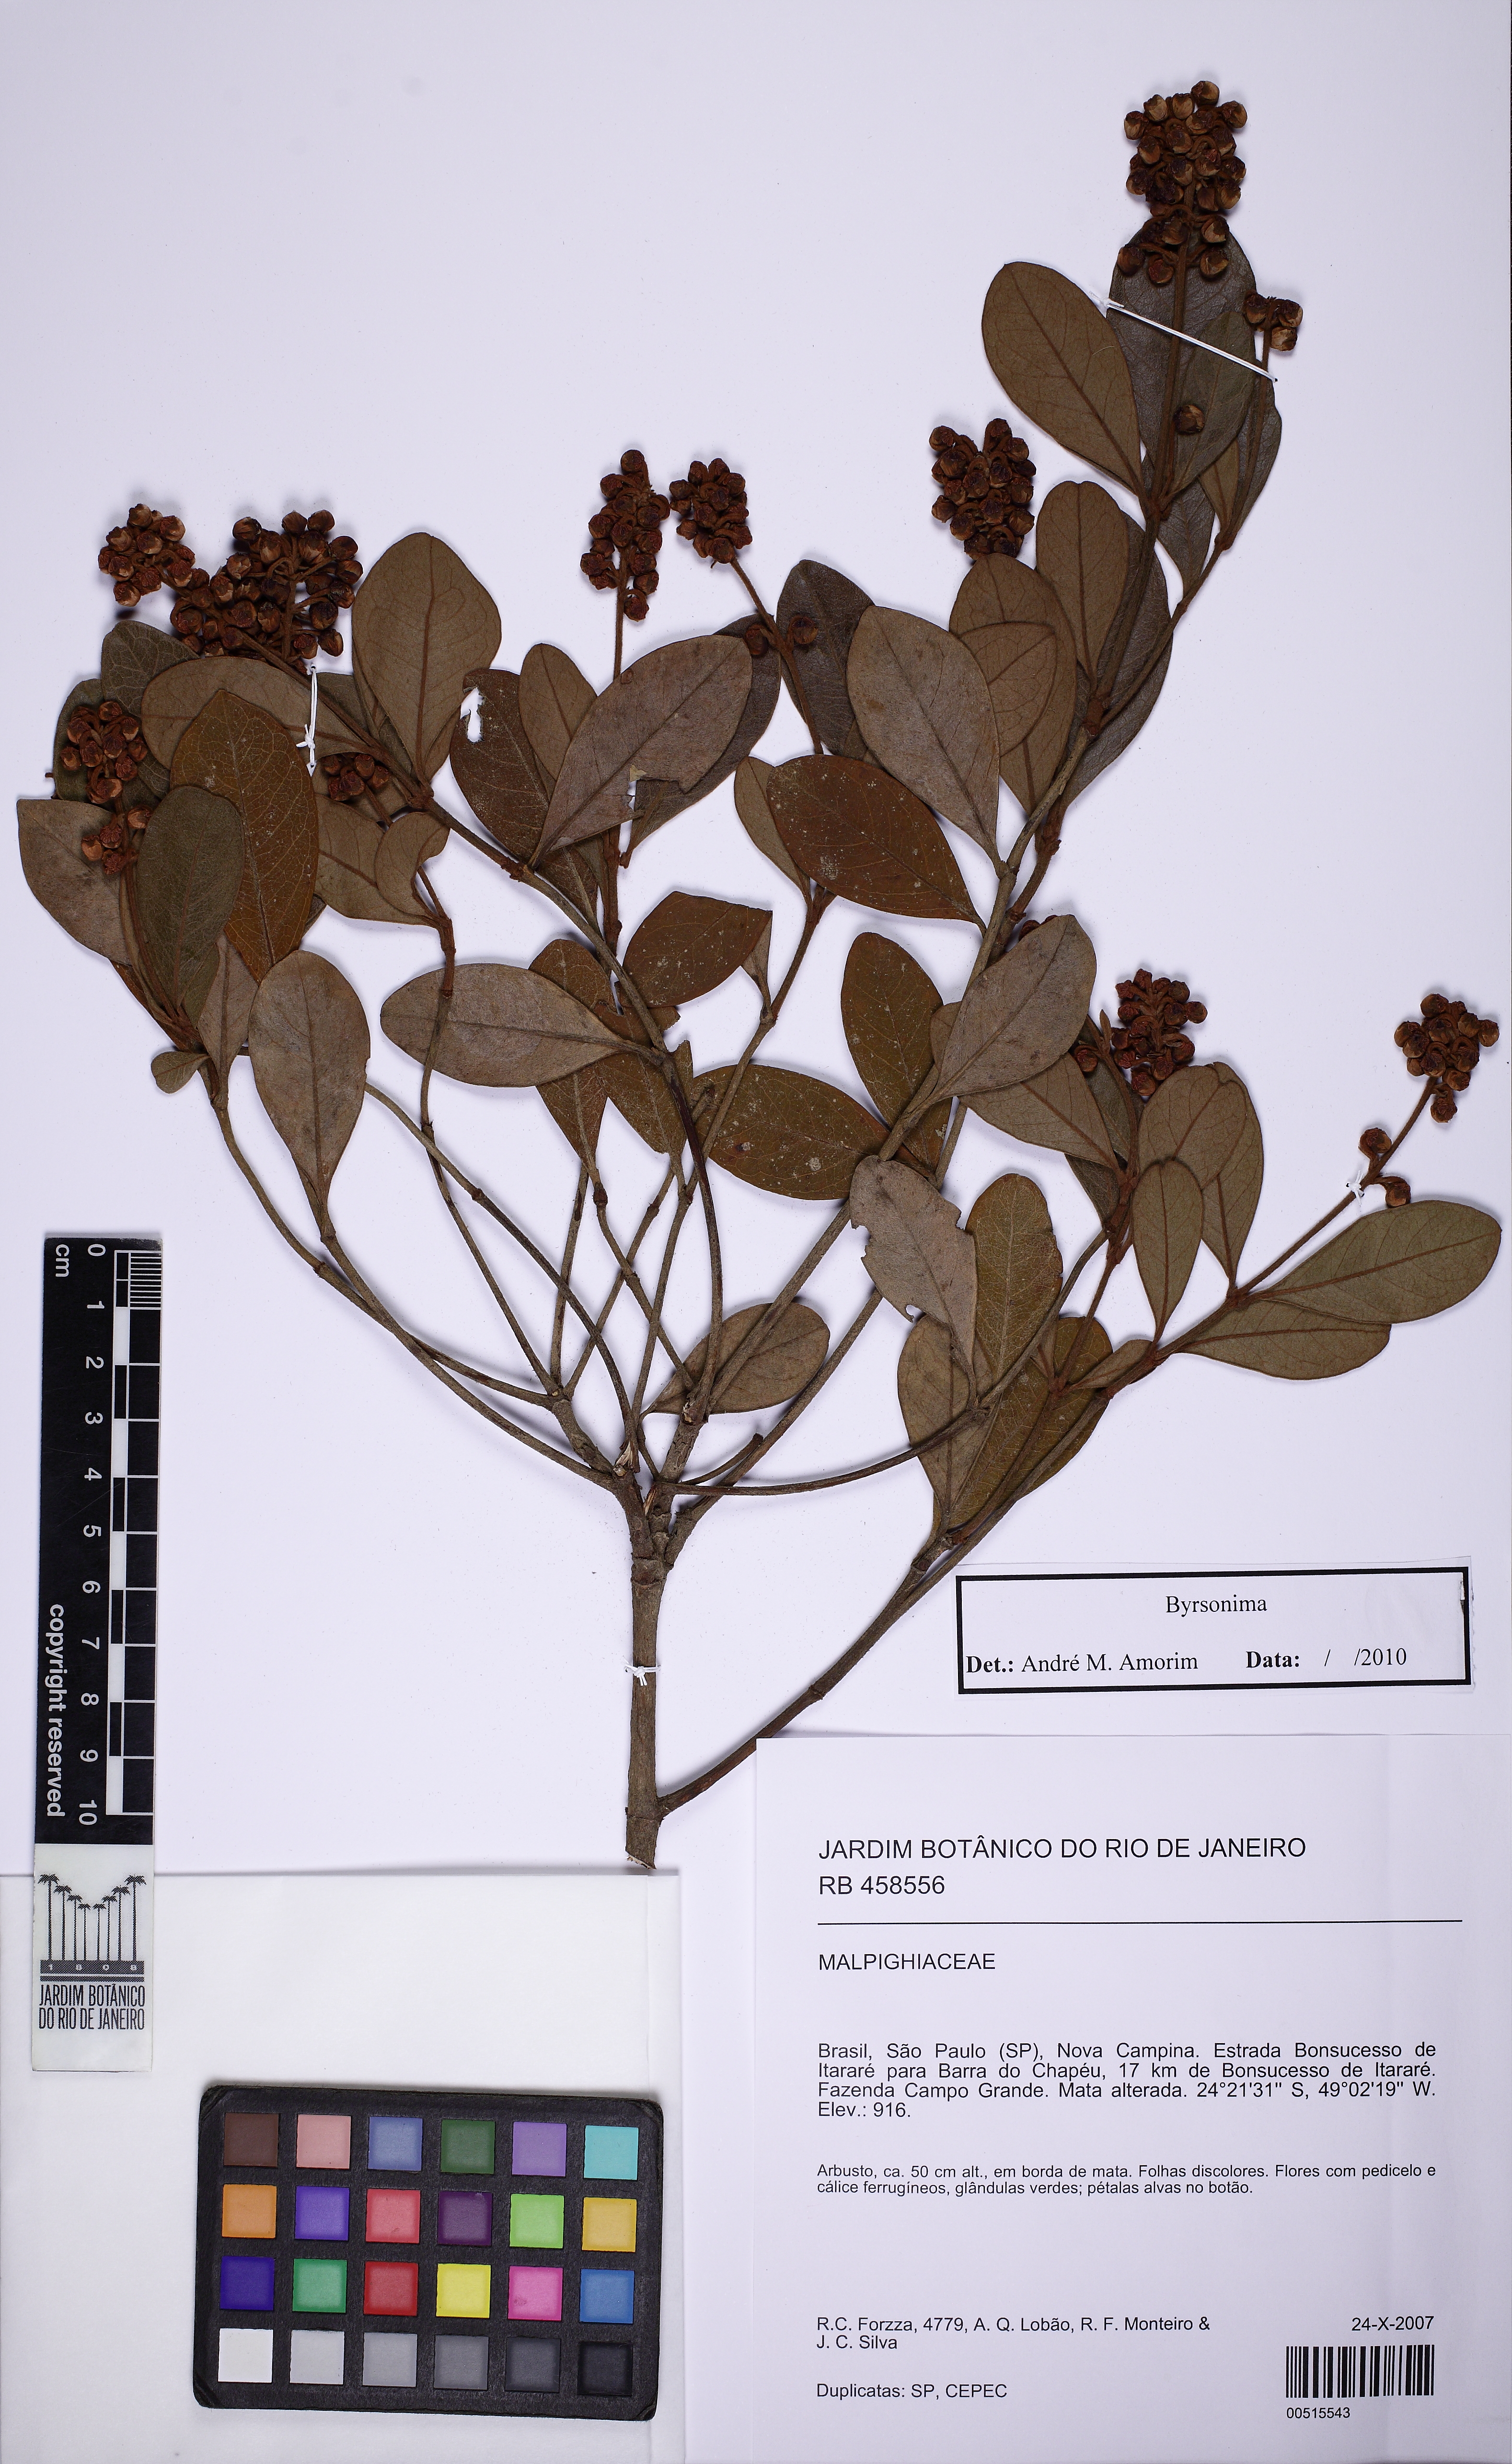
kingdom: Plantae
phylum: Tracheophyta
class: Magnoliopsida
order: Malpighiales
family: Malpighiaceae
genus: Byrsonima
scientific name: Byrsonima variabilis
